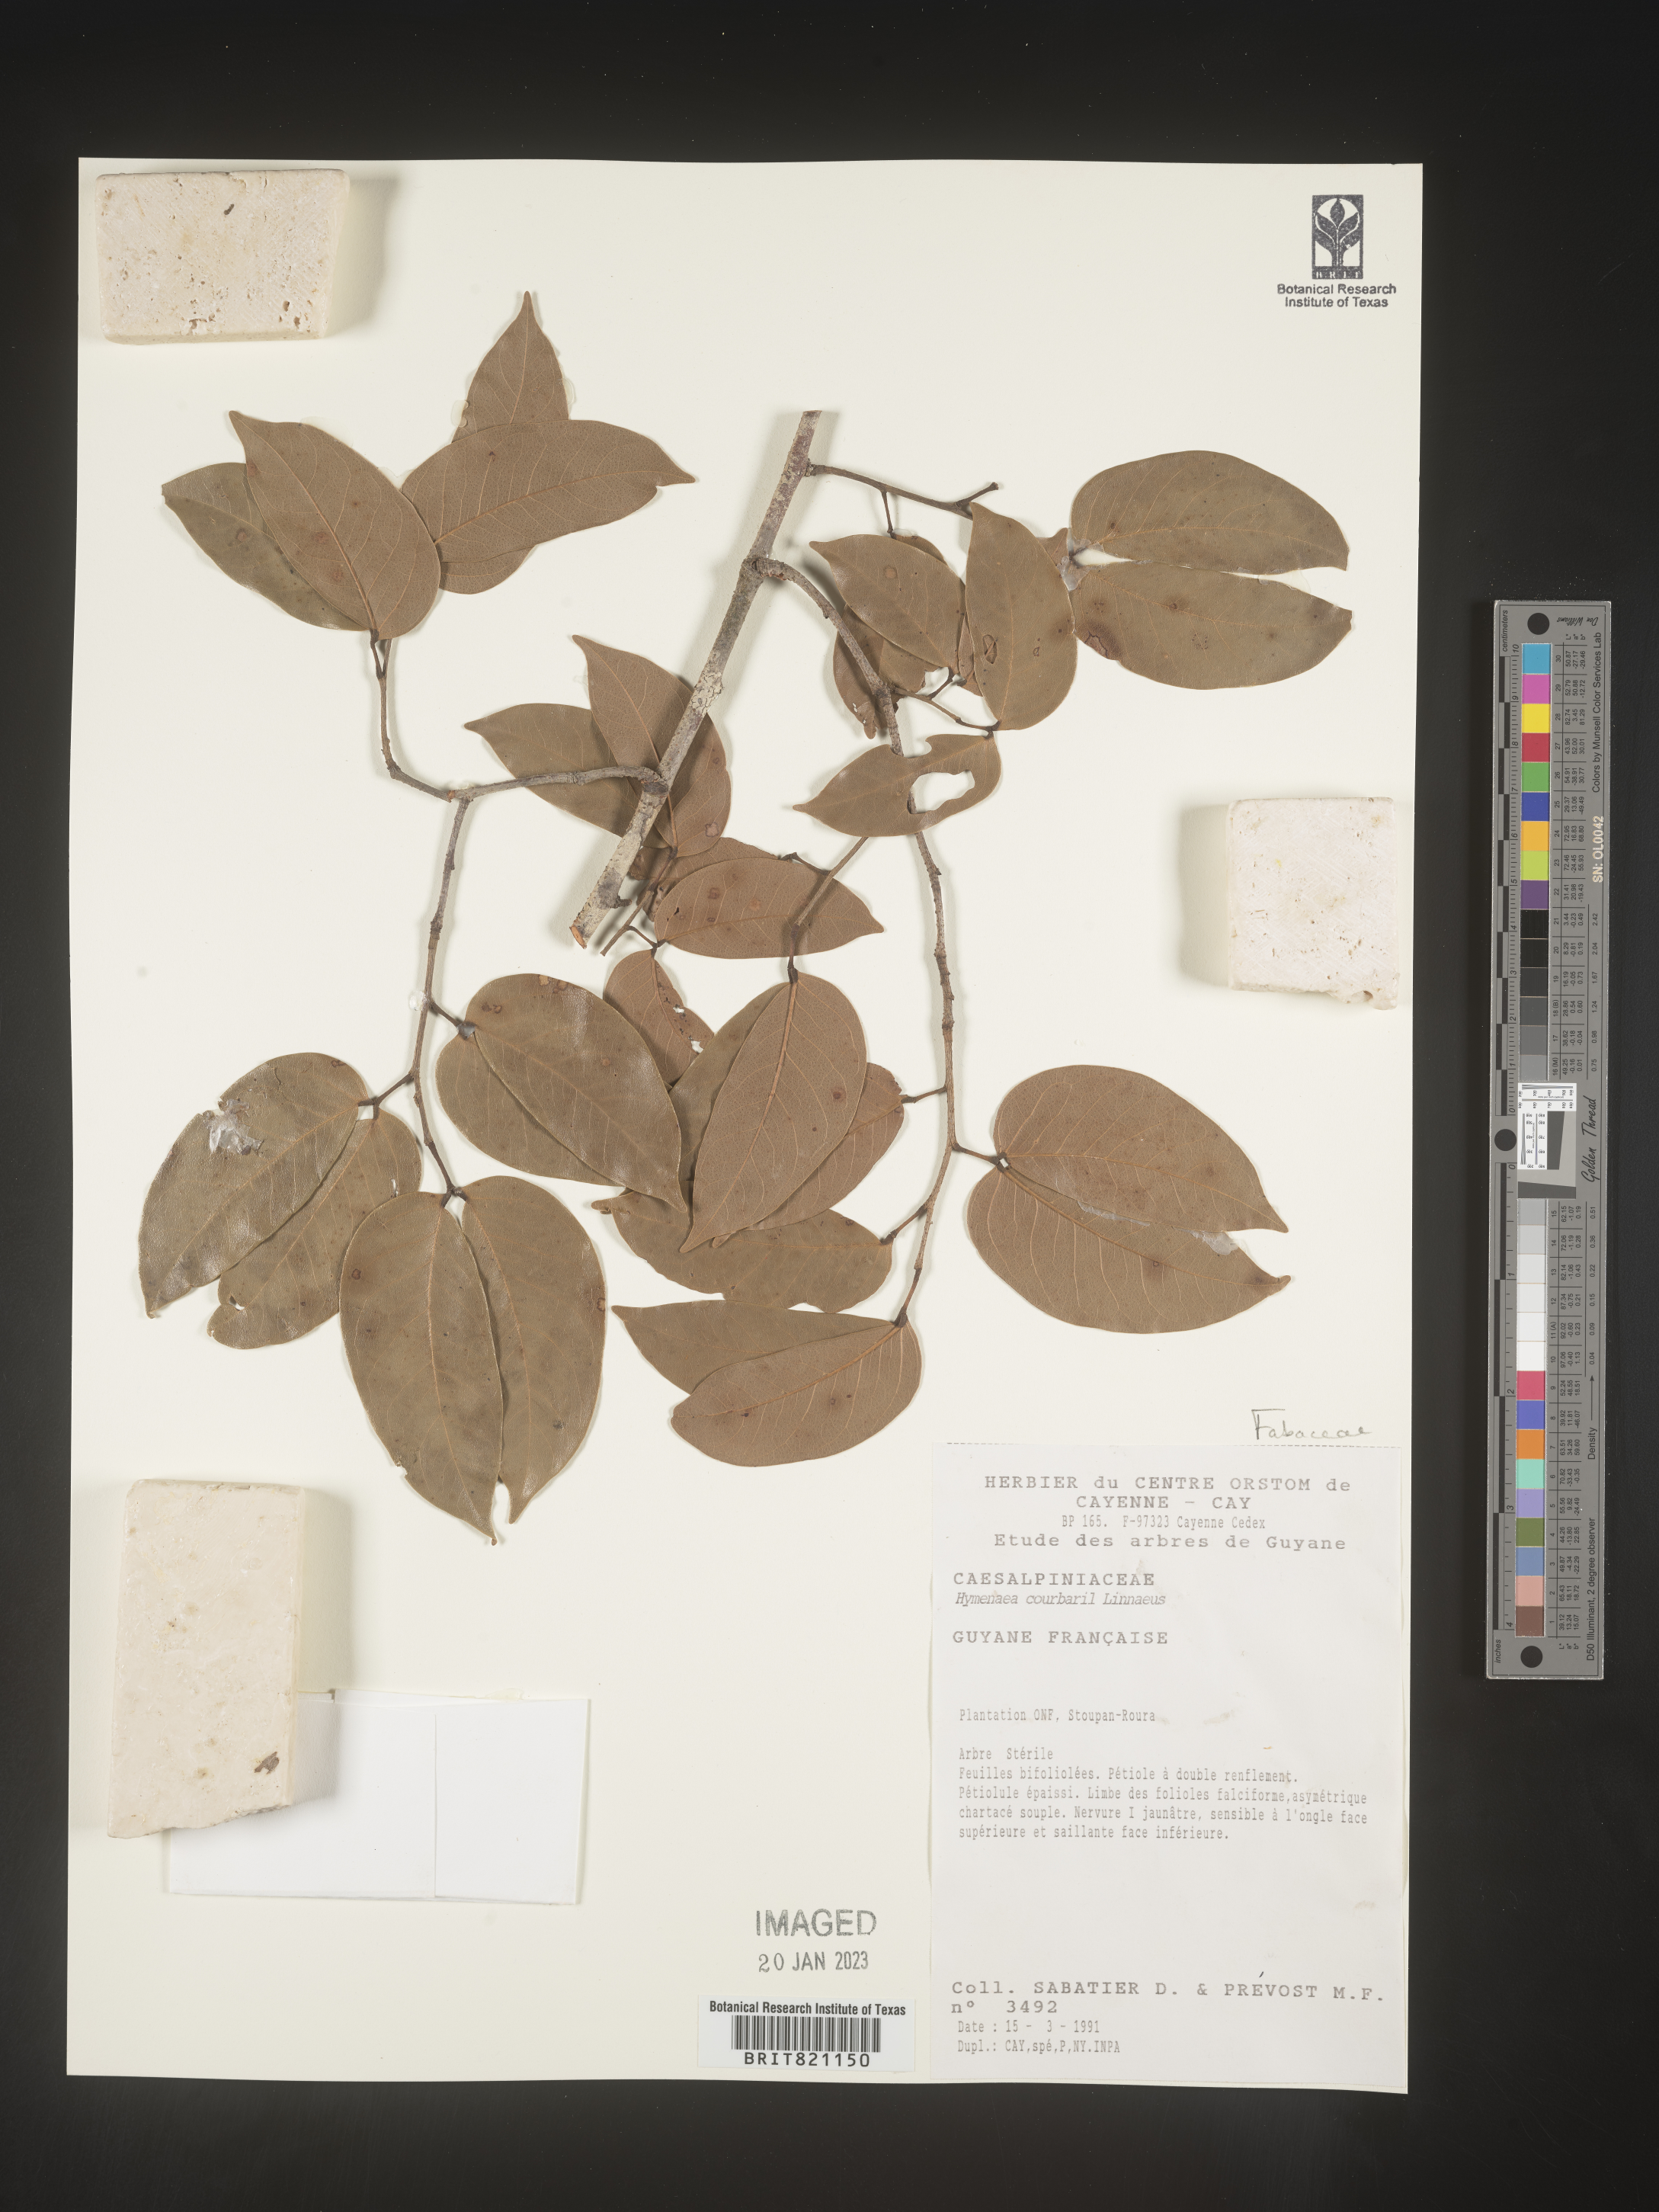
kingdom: Plantae
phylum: Tracheophyta
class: Magnoliopsida
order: Fabales
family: Fabaceae
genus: Hymenaea
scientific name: Hymenaea
